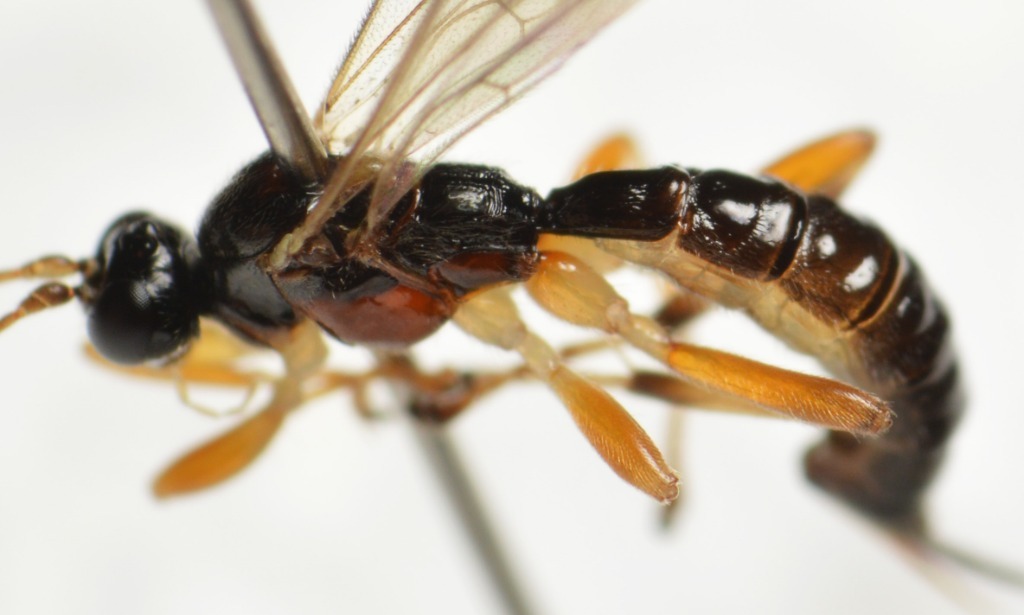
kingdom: Animalia
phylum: Arthropoda
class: Insecta
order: Hymenoptera
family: Ichneumonidae
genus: Dreisbachia
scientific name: Dreisbachia pictifrons
